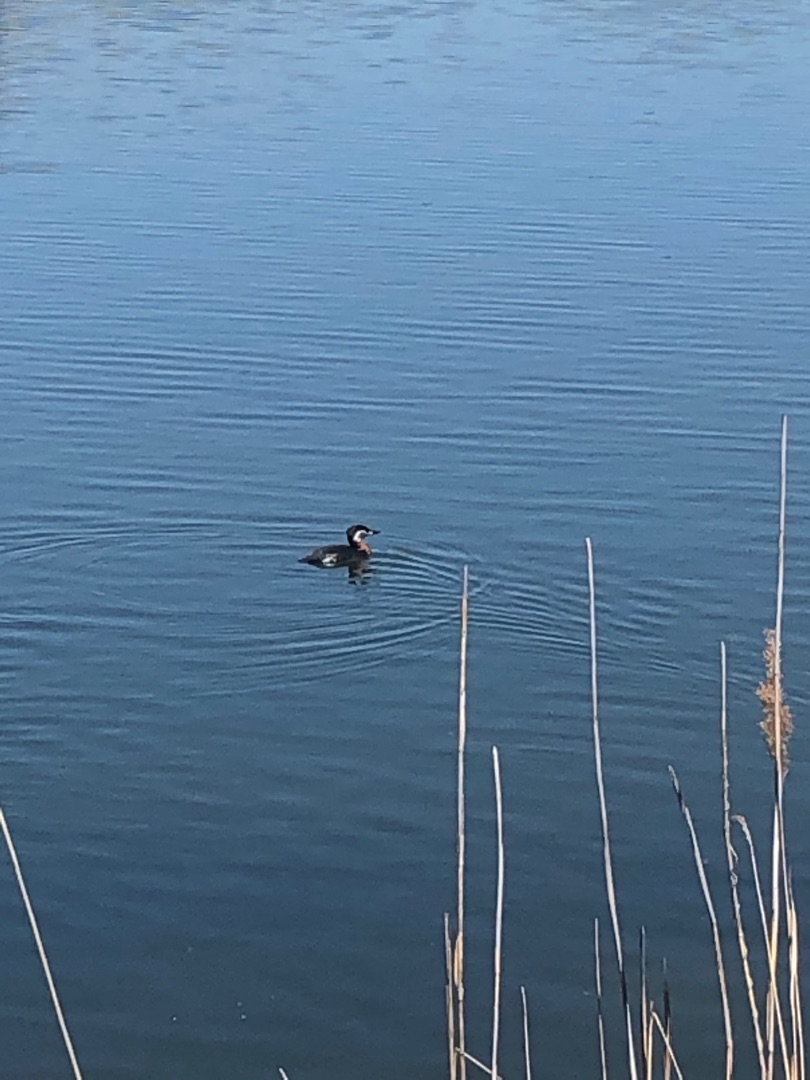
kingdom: Animalia
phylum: Chordata
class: Aves
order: Podicipediformes
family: Podicipedidae
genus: Podiceps
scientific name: Podiceps grisegena
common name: Gråstrubet lappedykker
